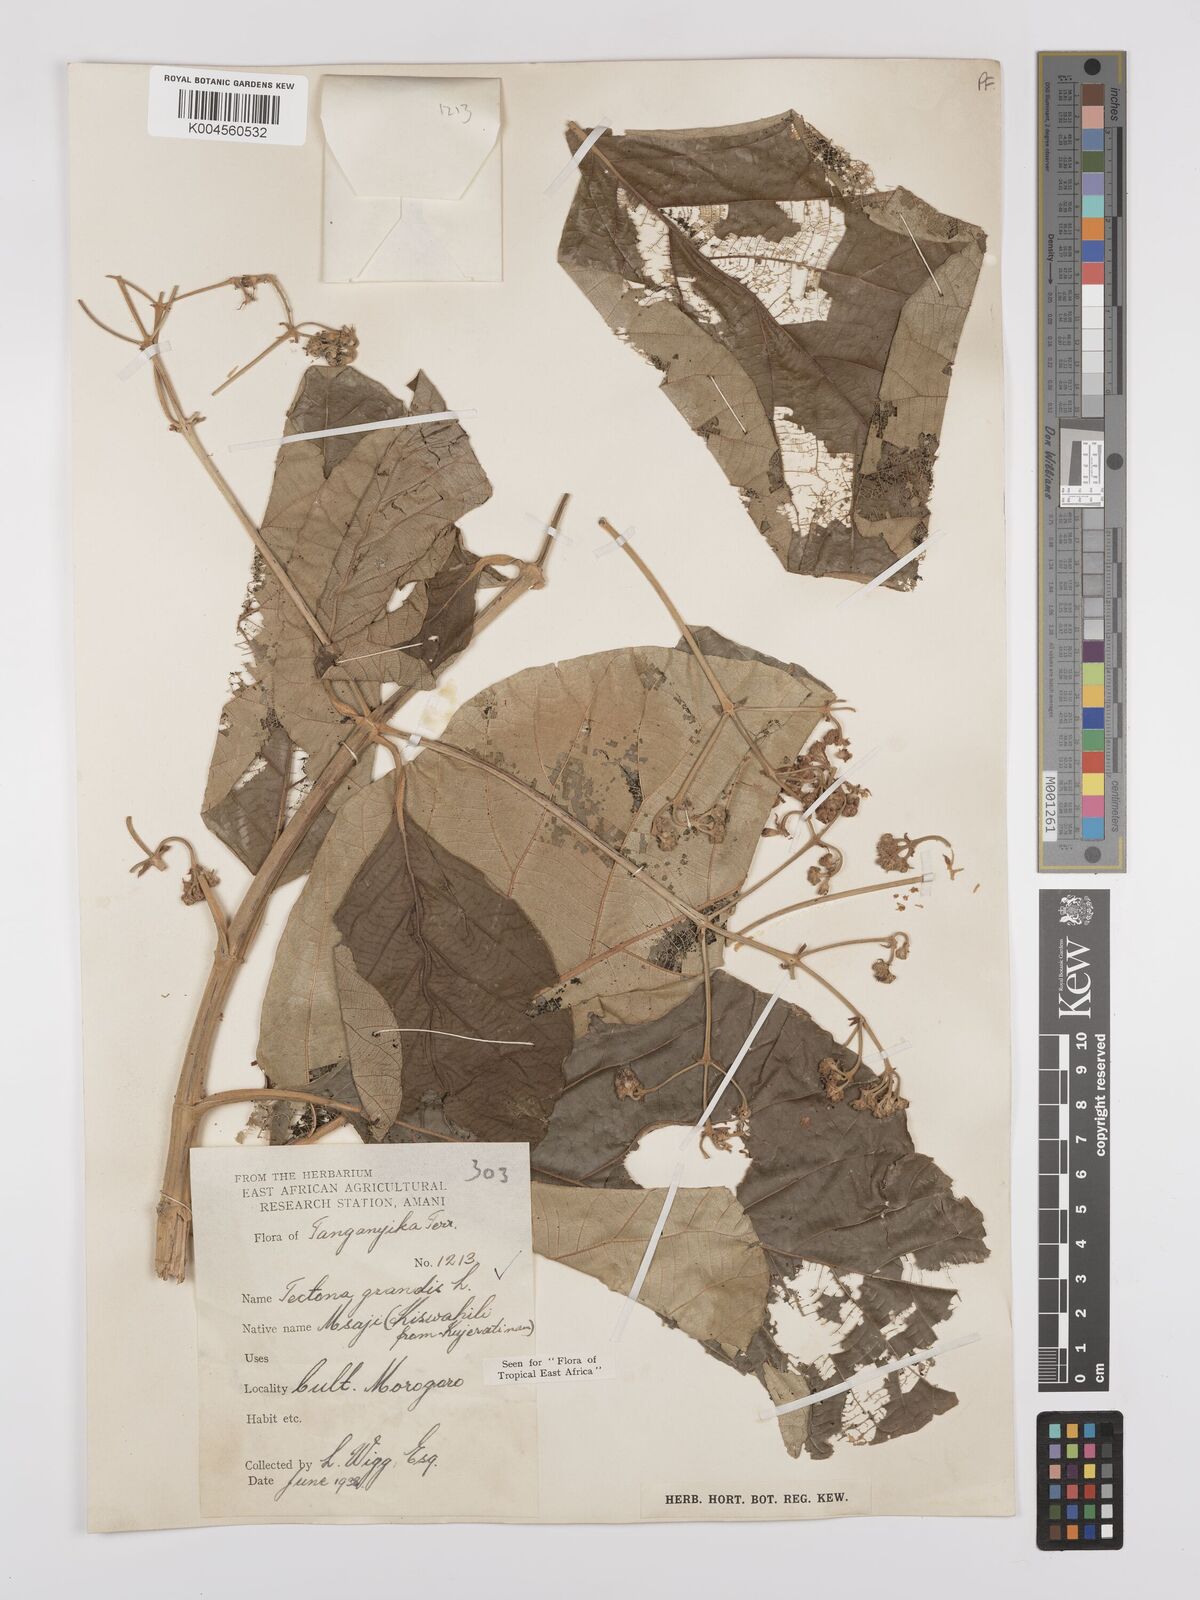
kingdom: Plantae
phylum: Tracheophyta
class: Magnoliopsida
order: Lamiales
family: Lamiaceae
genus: Tectona
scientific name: Tectona grandis
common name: Teak
